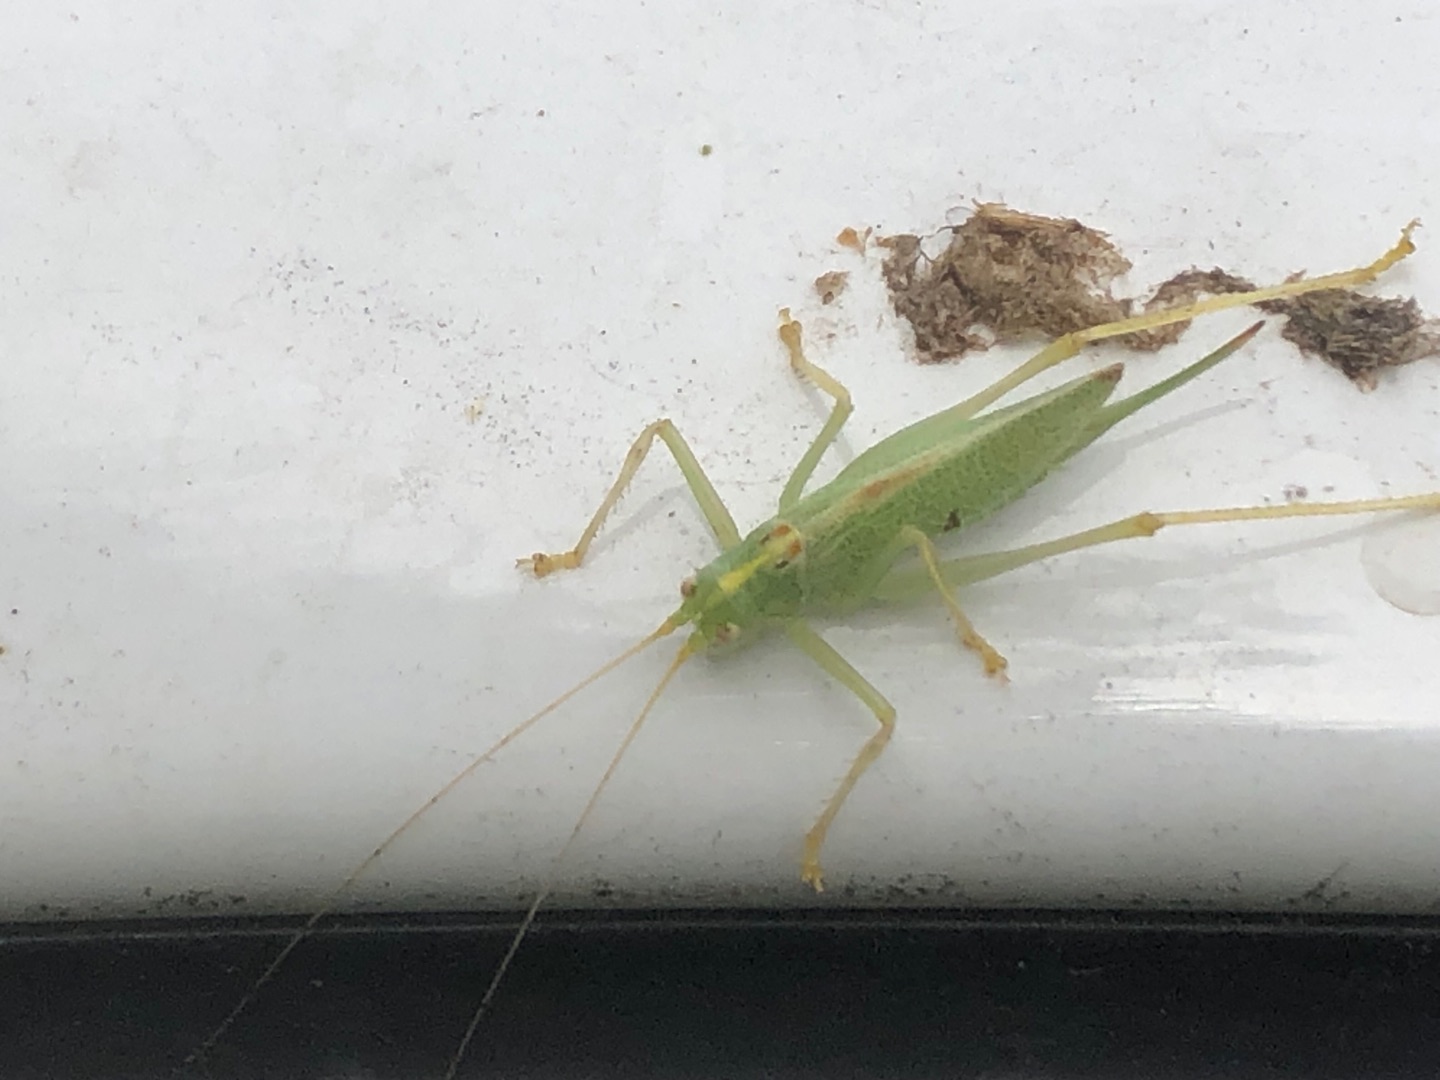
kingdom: Animalia
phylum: Arthropoda
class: Insecta
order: Orthoptera
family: Tettigoniidae
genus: Meconema
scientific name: Meconema thalassinum
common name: Egegræshoppe
